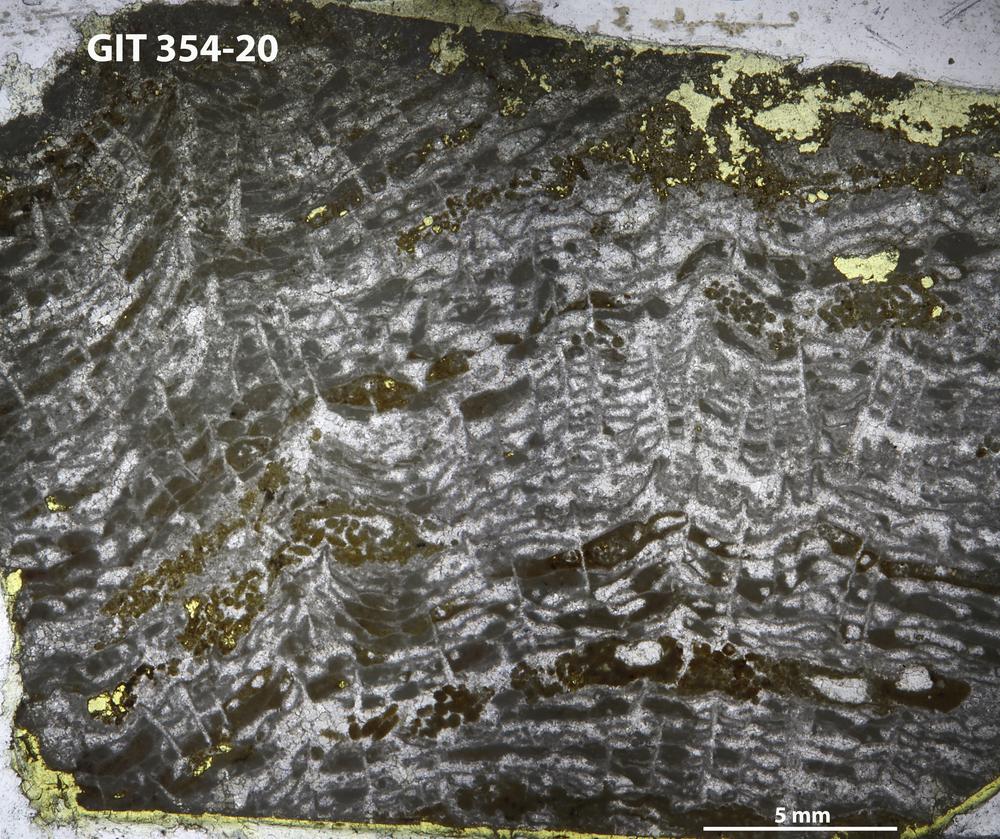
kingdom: Animalia
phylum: Porifera
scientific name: Porifera
